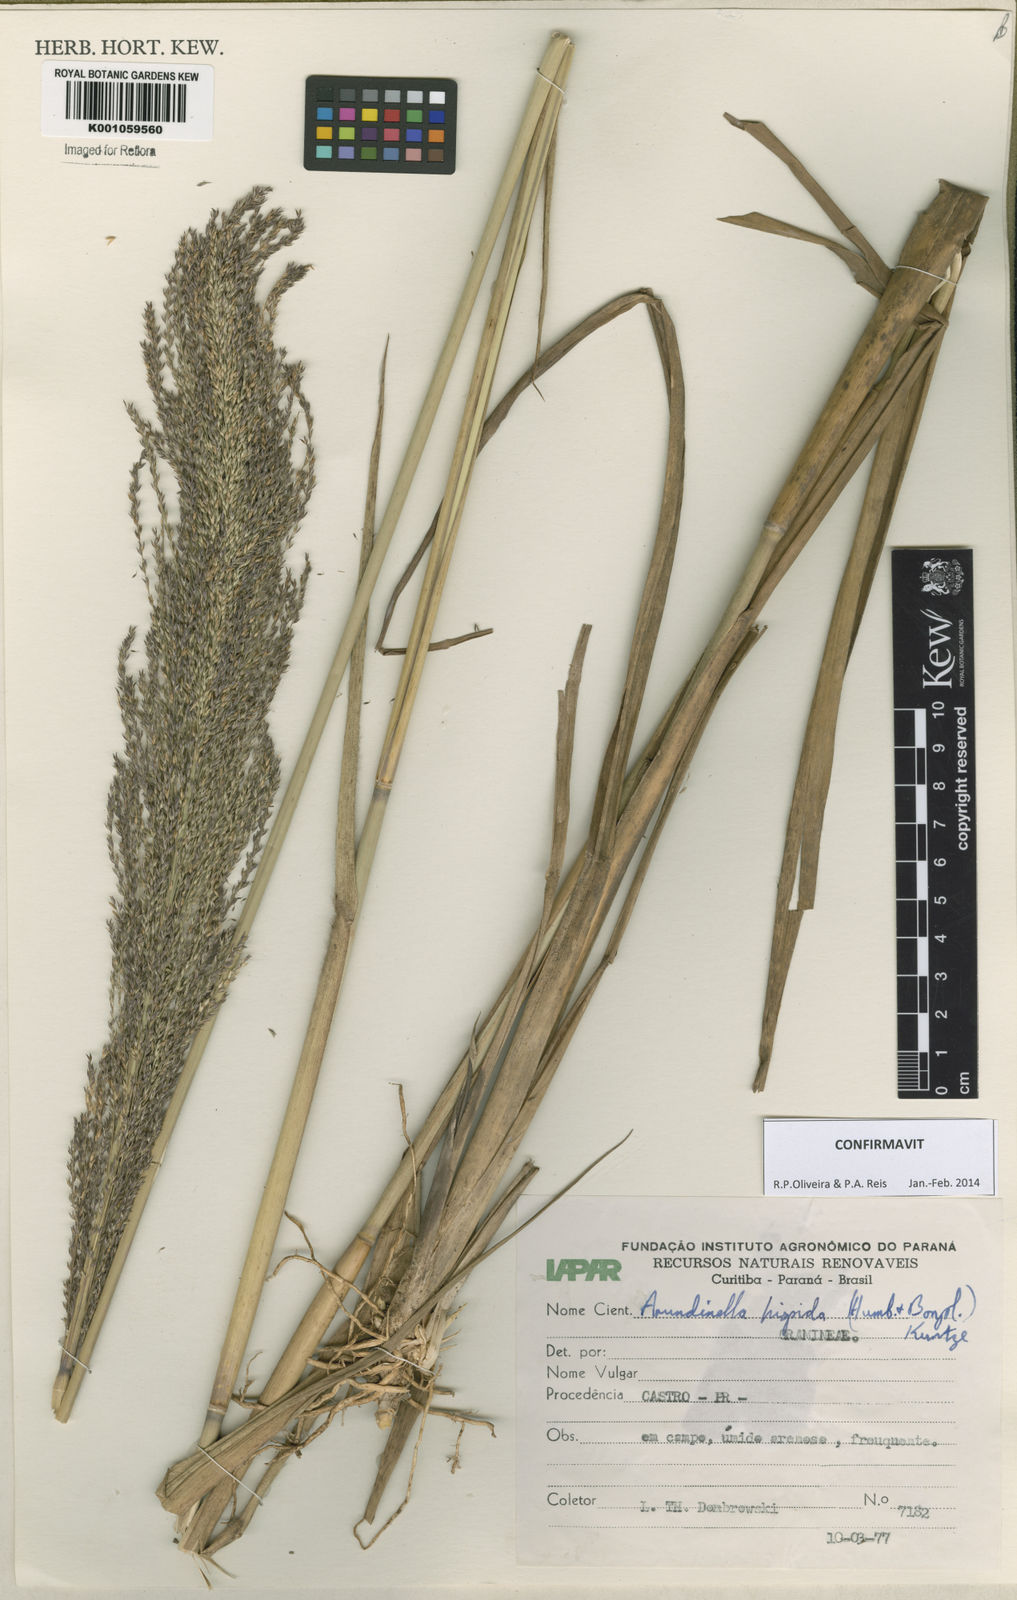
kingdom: Plantae
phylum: Tracheophyta
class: Liliopsida
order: Poales
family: Poaceae
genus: Arundinella
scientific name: Arundinella hispida
